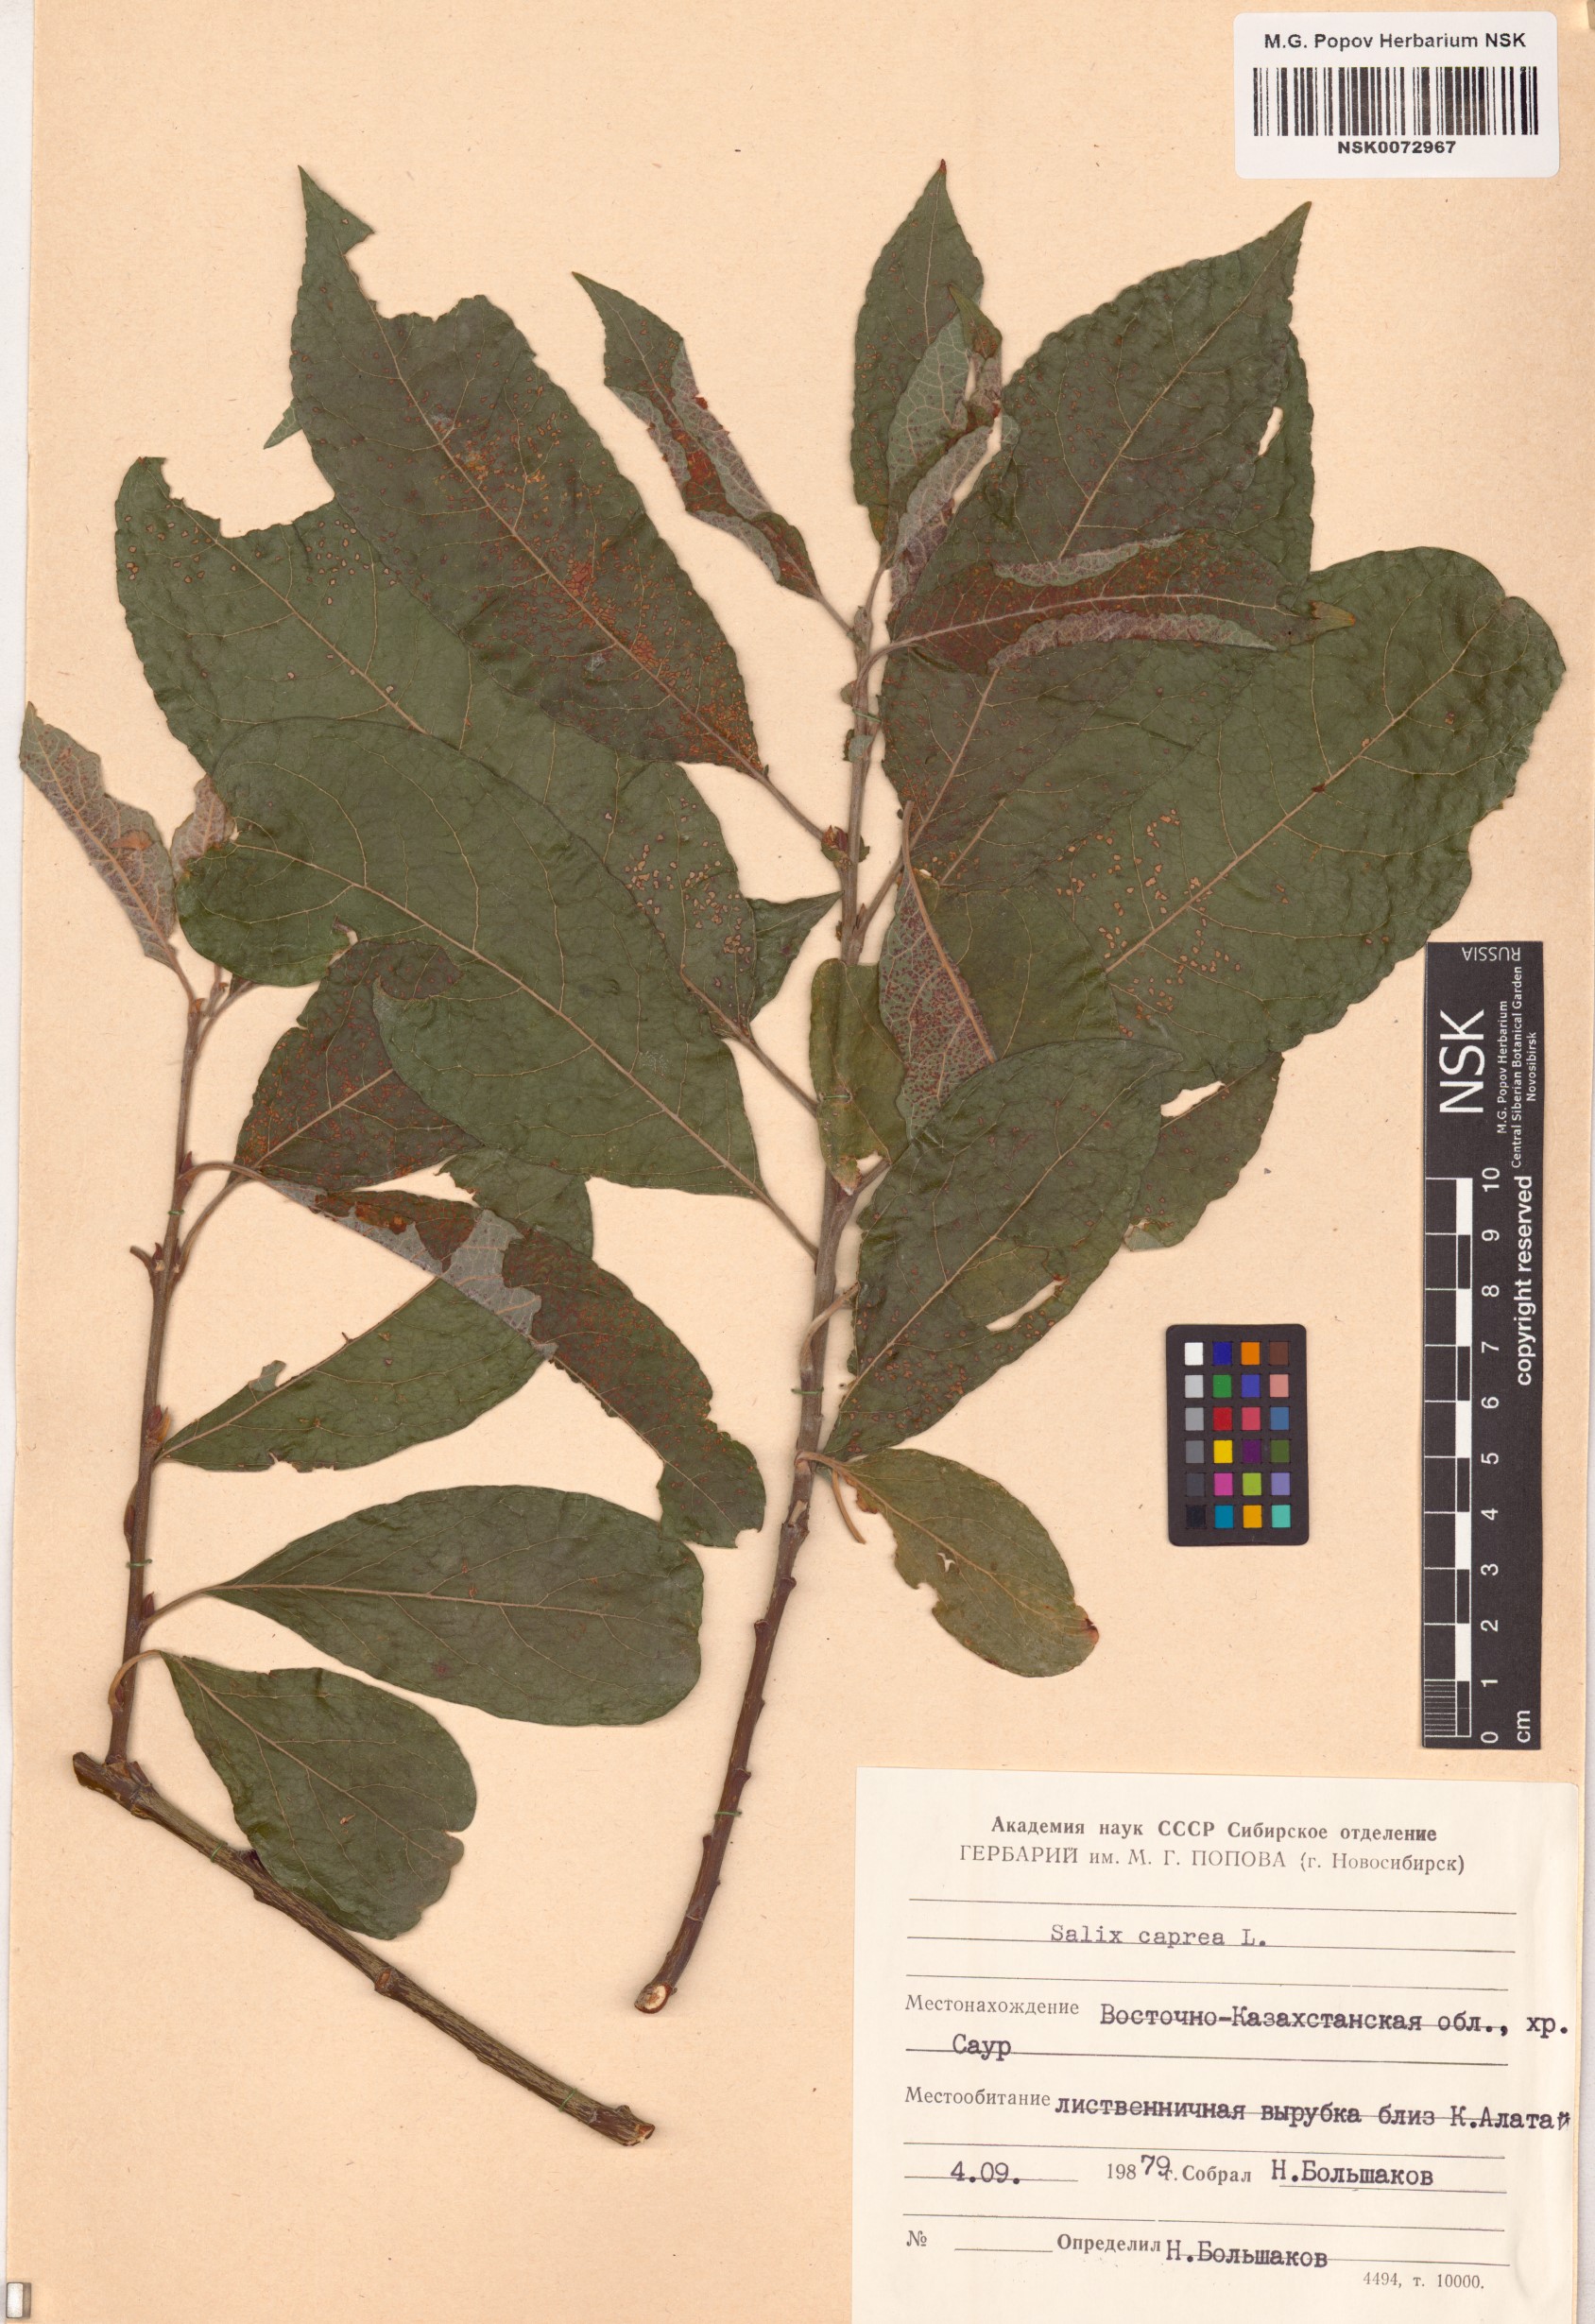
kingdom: Plantae
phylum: Tracheophyta
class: Magnoliopsida
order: Malpighiales
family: Salicaceae
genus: Salix
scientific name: Salix caprea
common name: Goat willow
